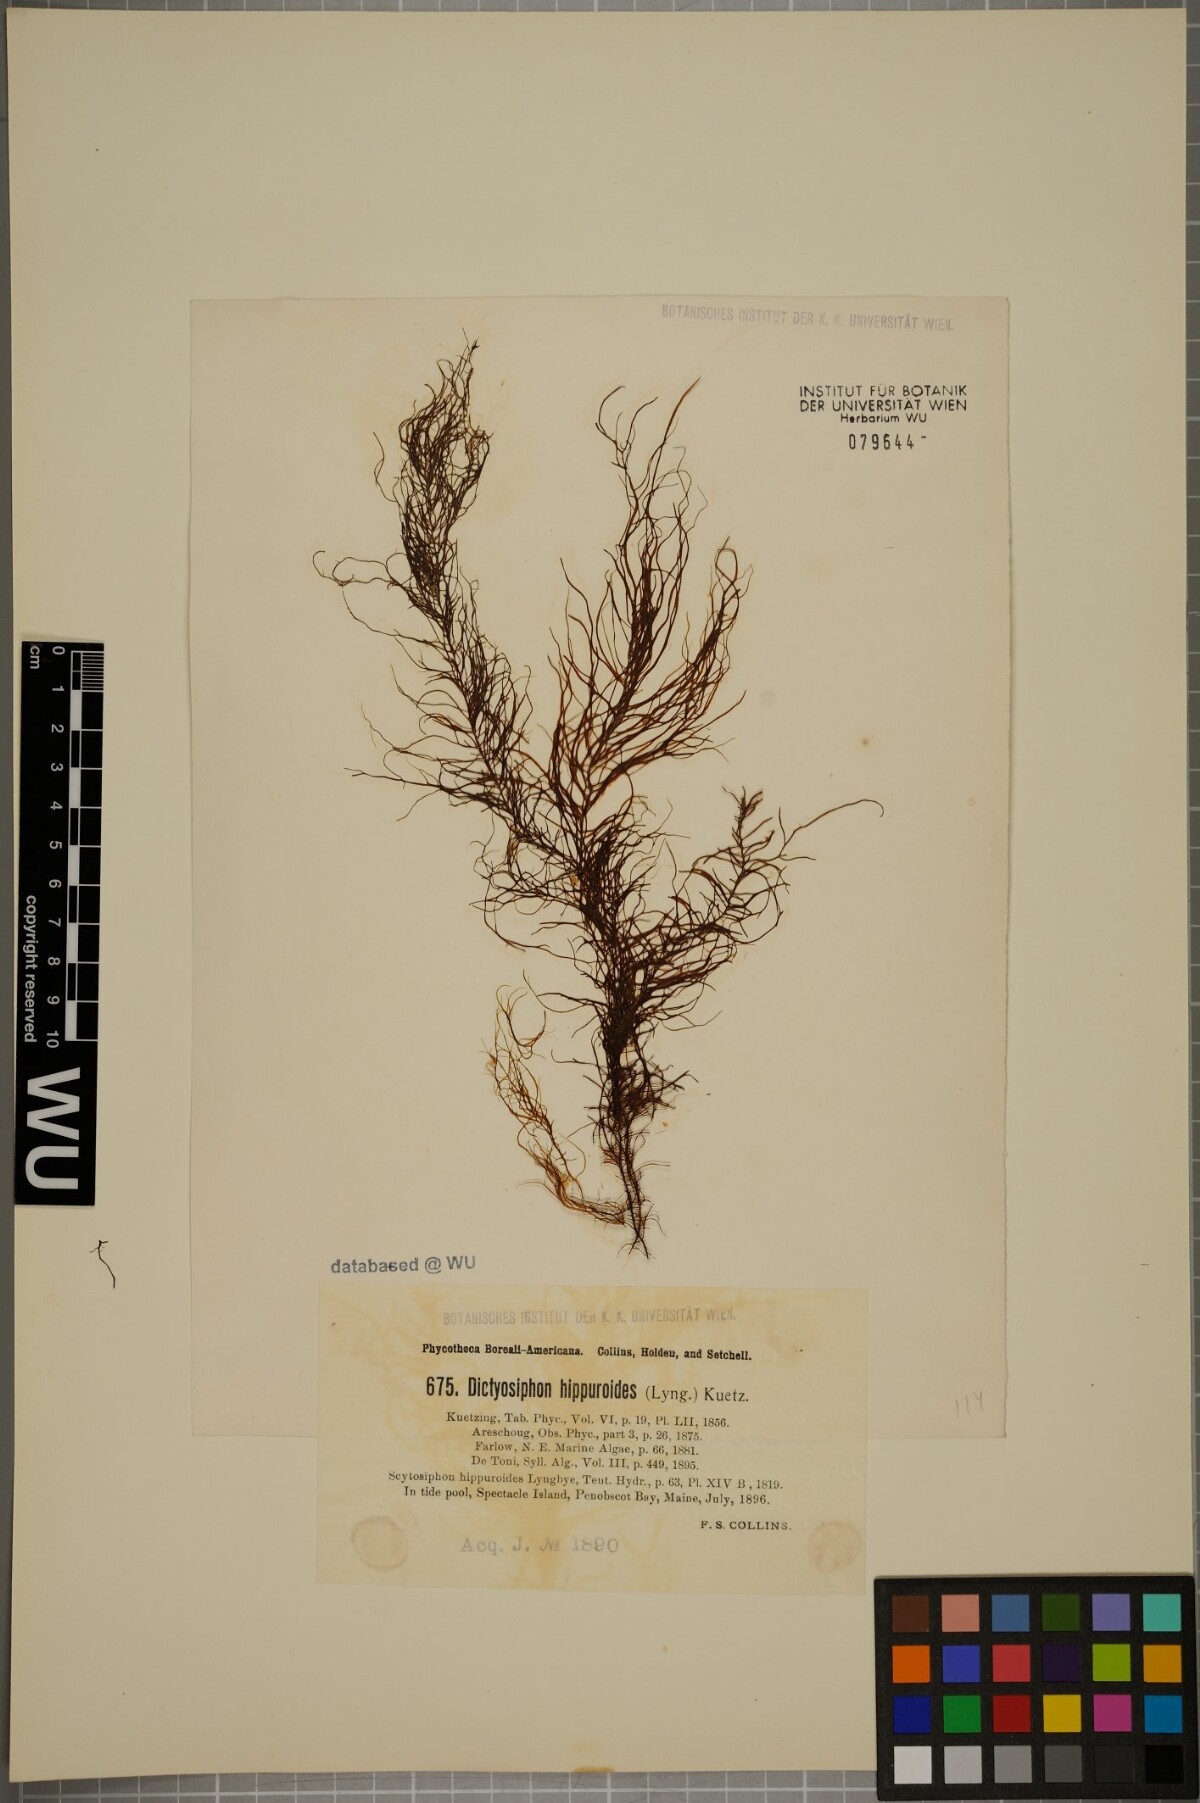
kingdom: Chromista
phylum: Ochrophyta
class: Phaeophyceae
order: Ectocarpales
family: Chordariaceae
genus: Dictyosiphon
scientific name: Dictyosiphon foeniculaceus
